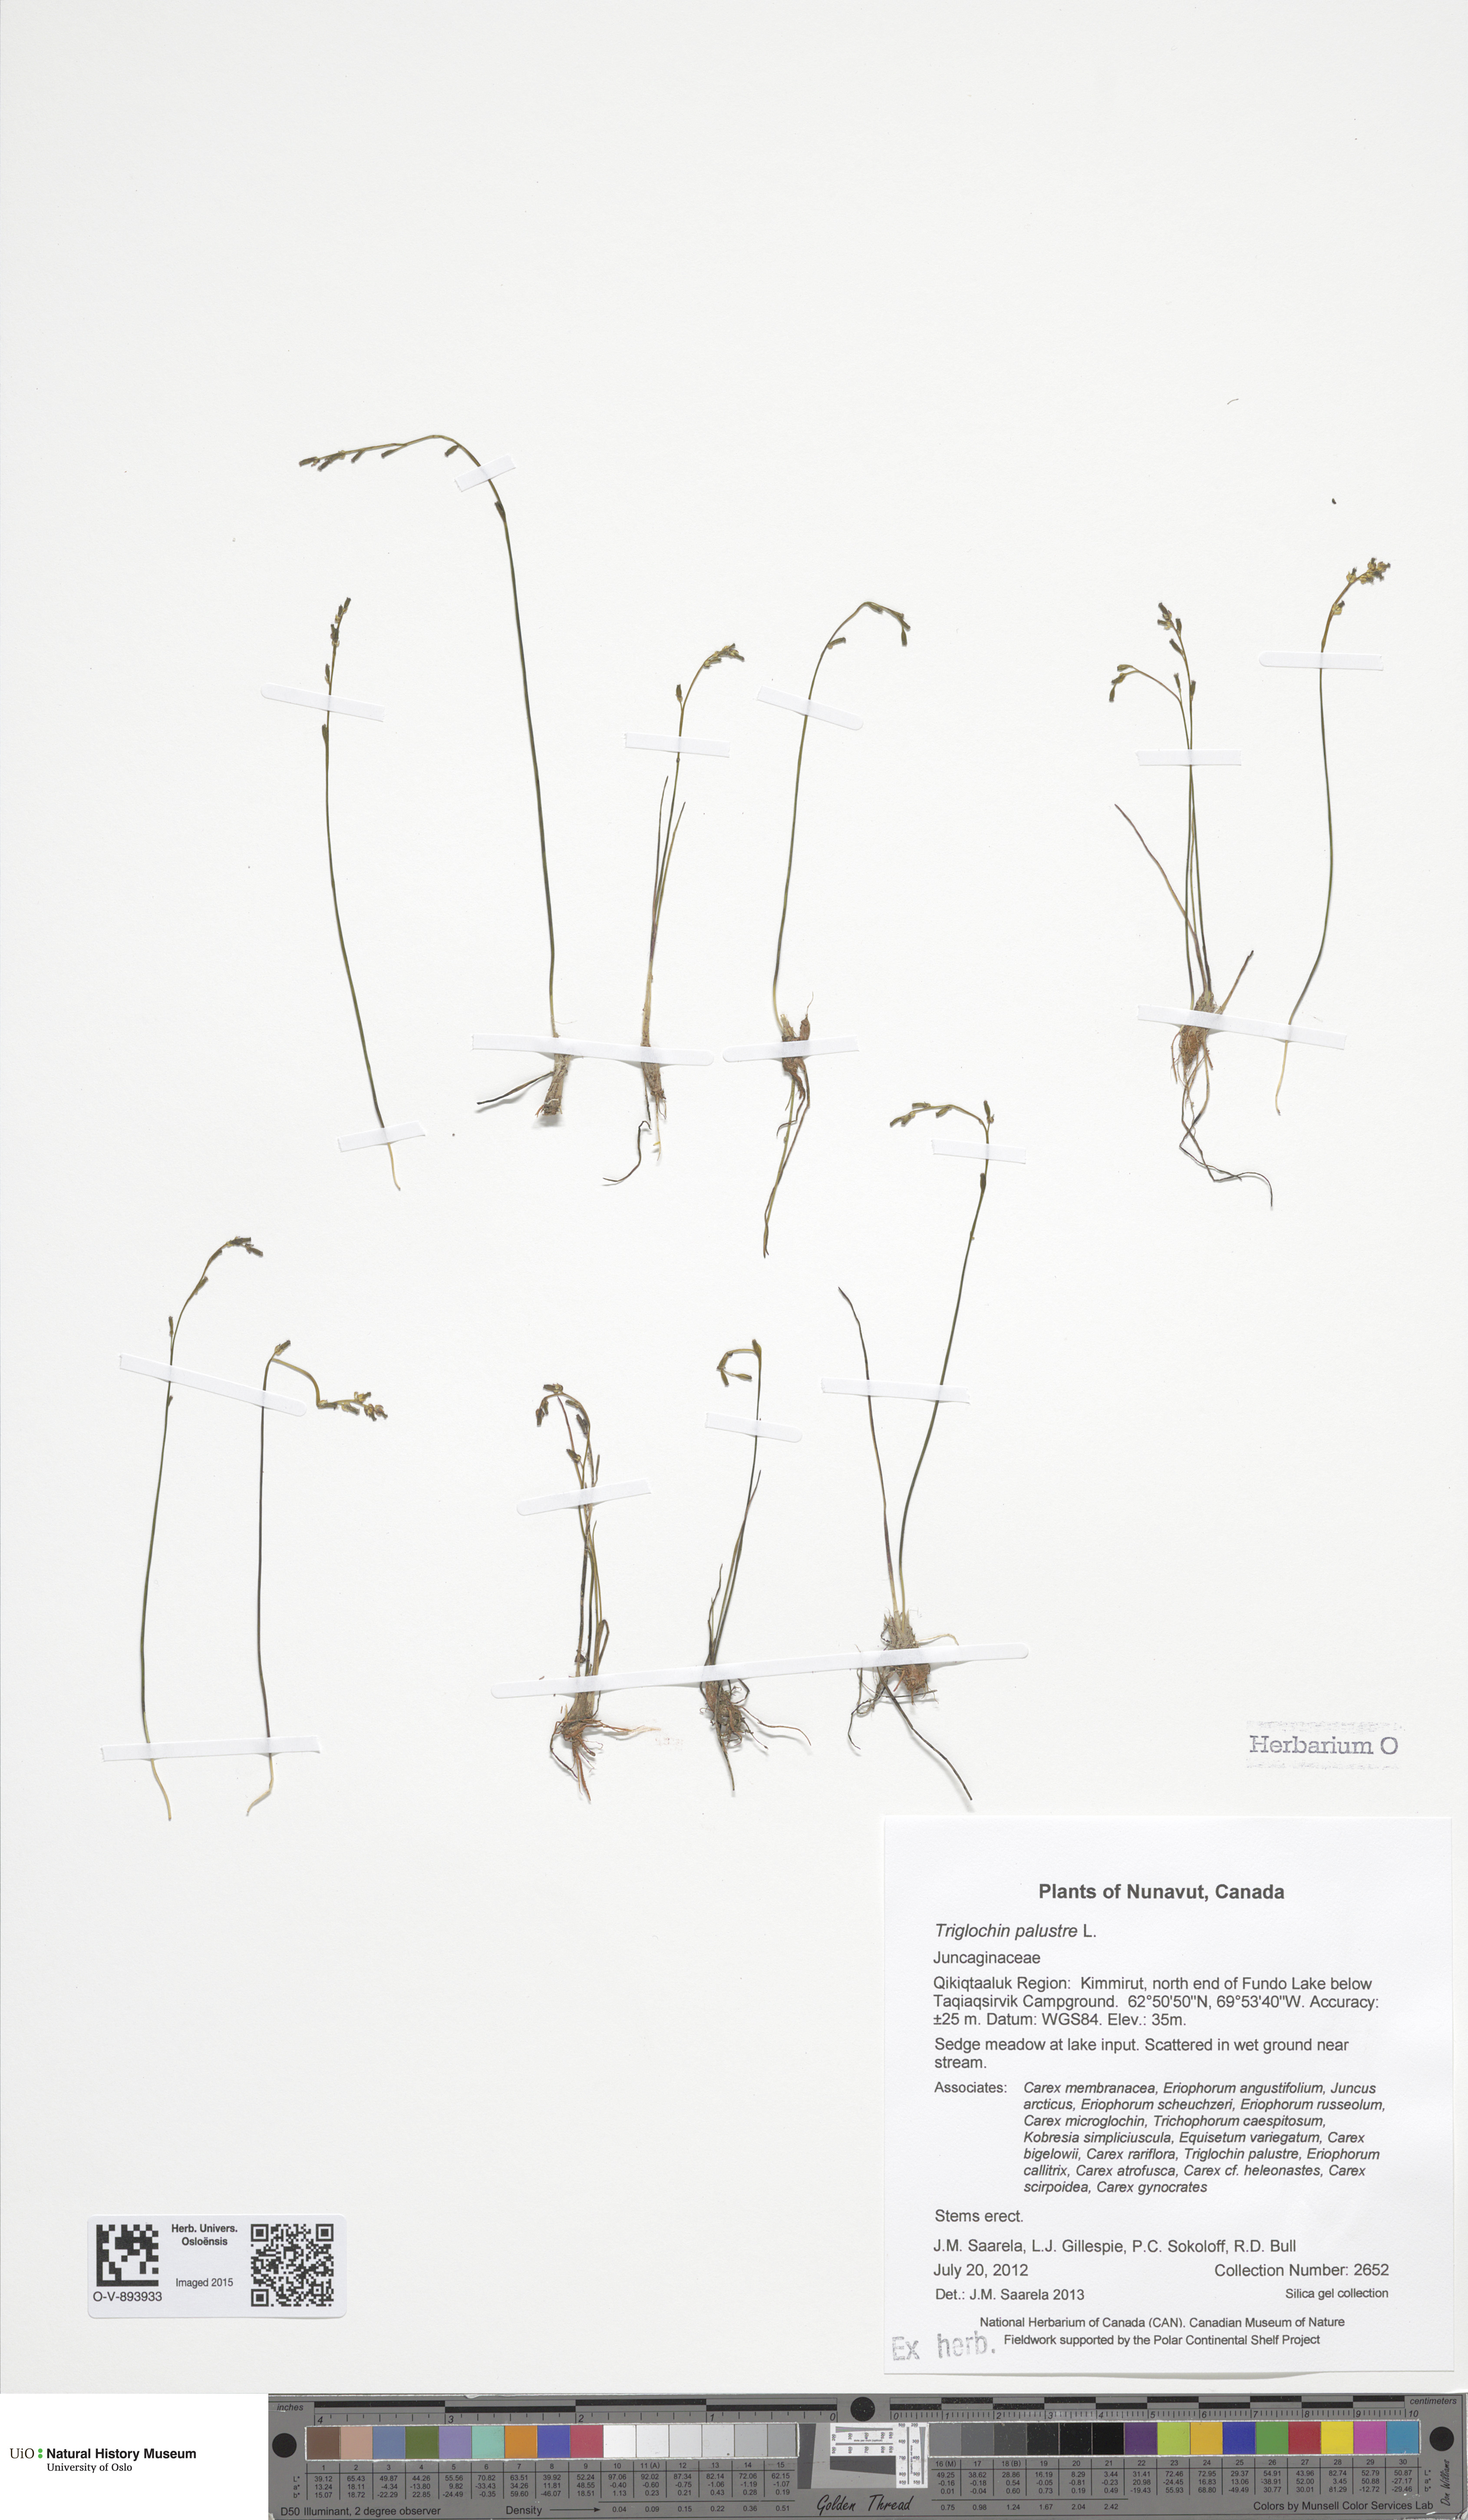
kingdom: Plantae
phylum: Tracheophyta
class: Liliopsida
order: Alismatales
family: Juncaginaceae
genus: Triglochin
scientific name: Triglochin palustris
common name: Marsh arrowgrass
